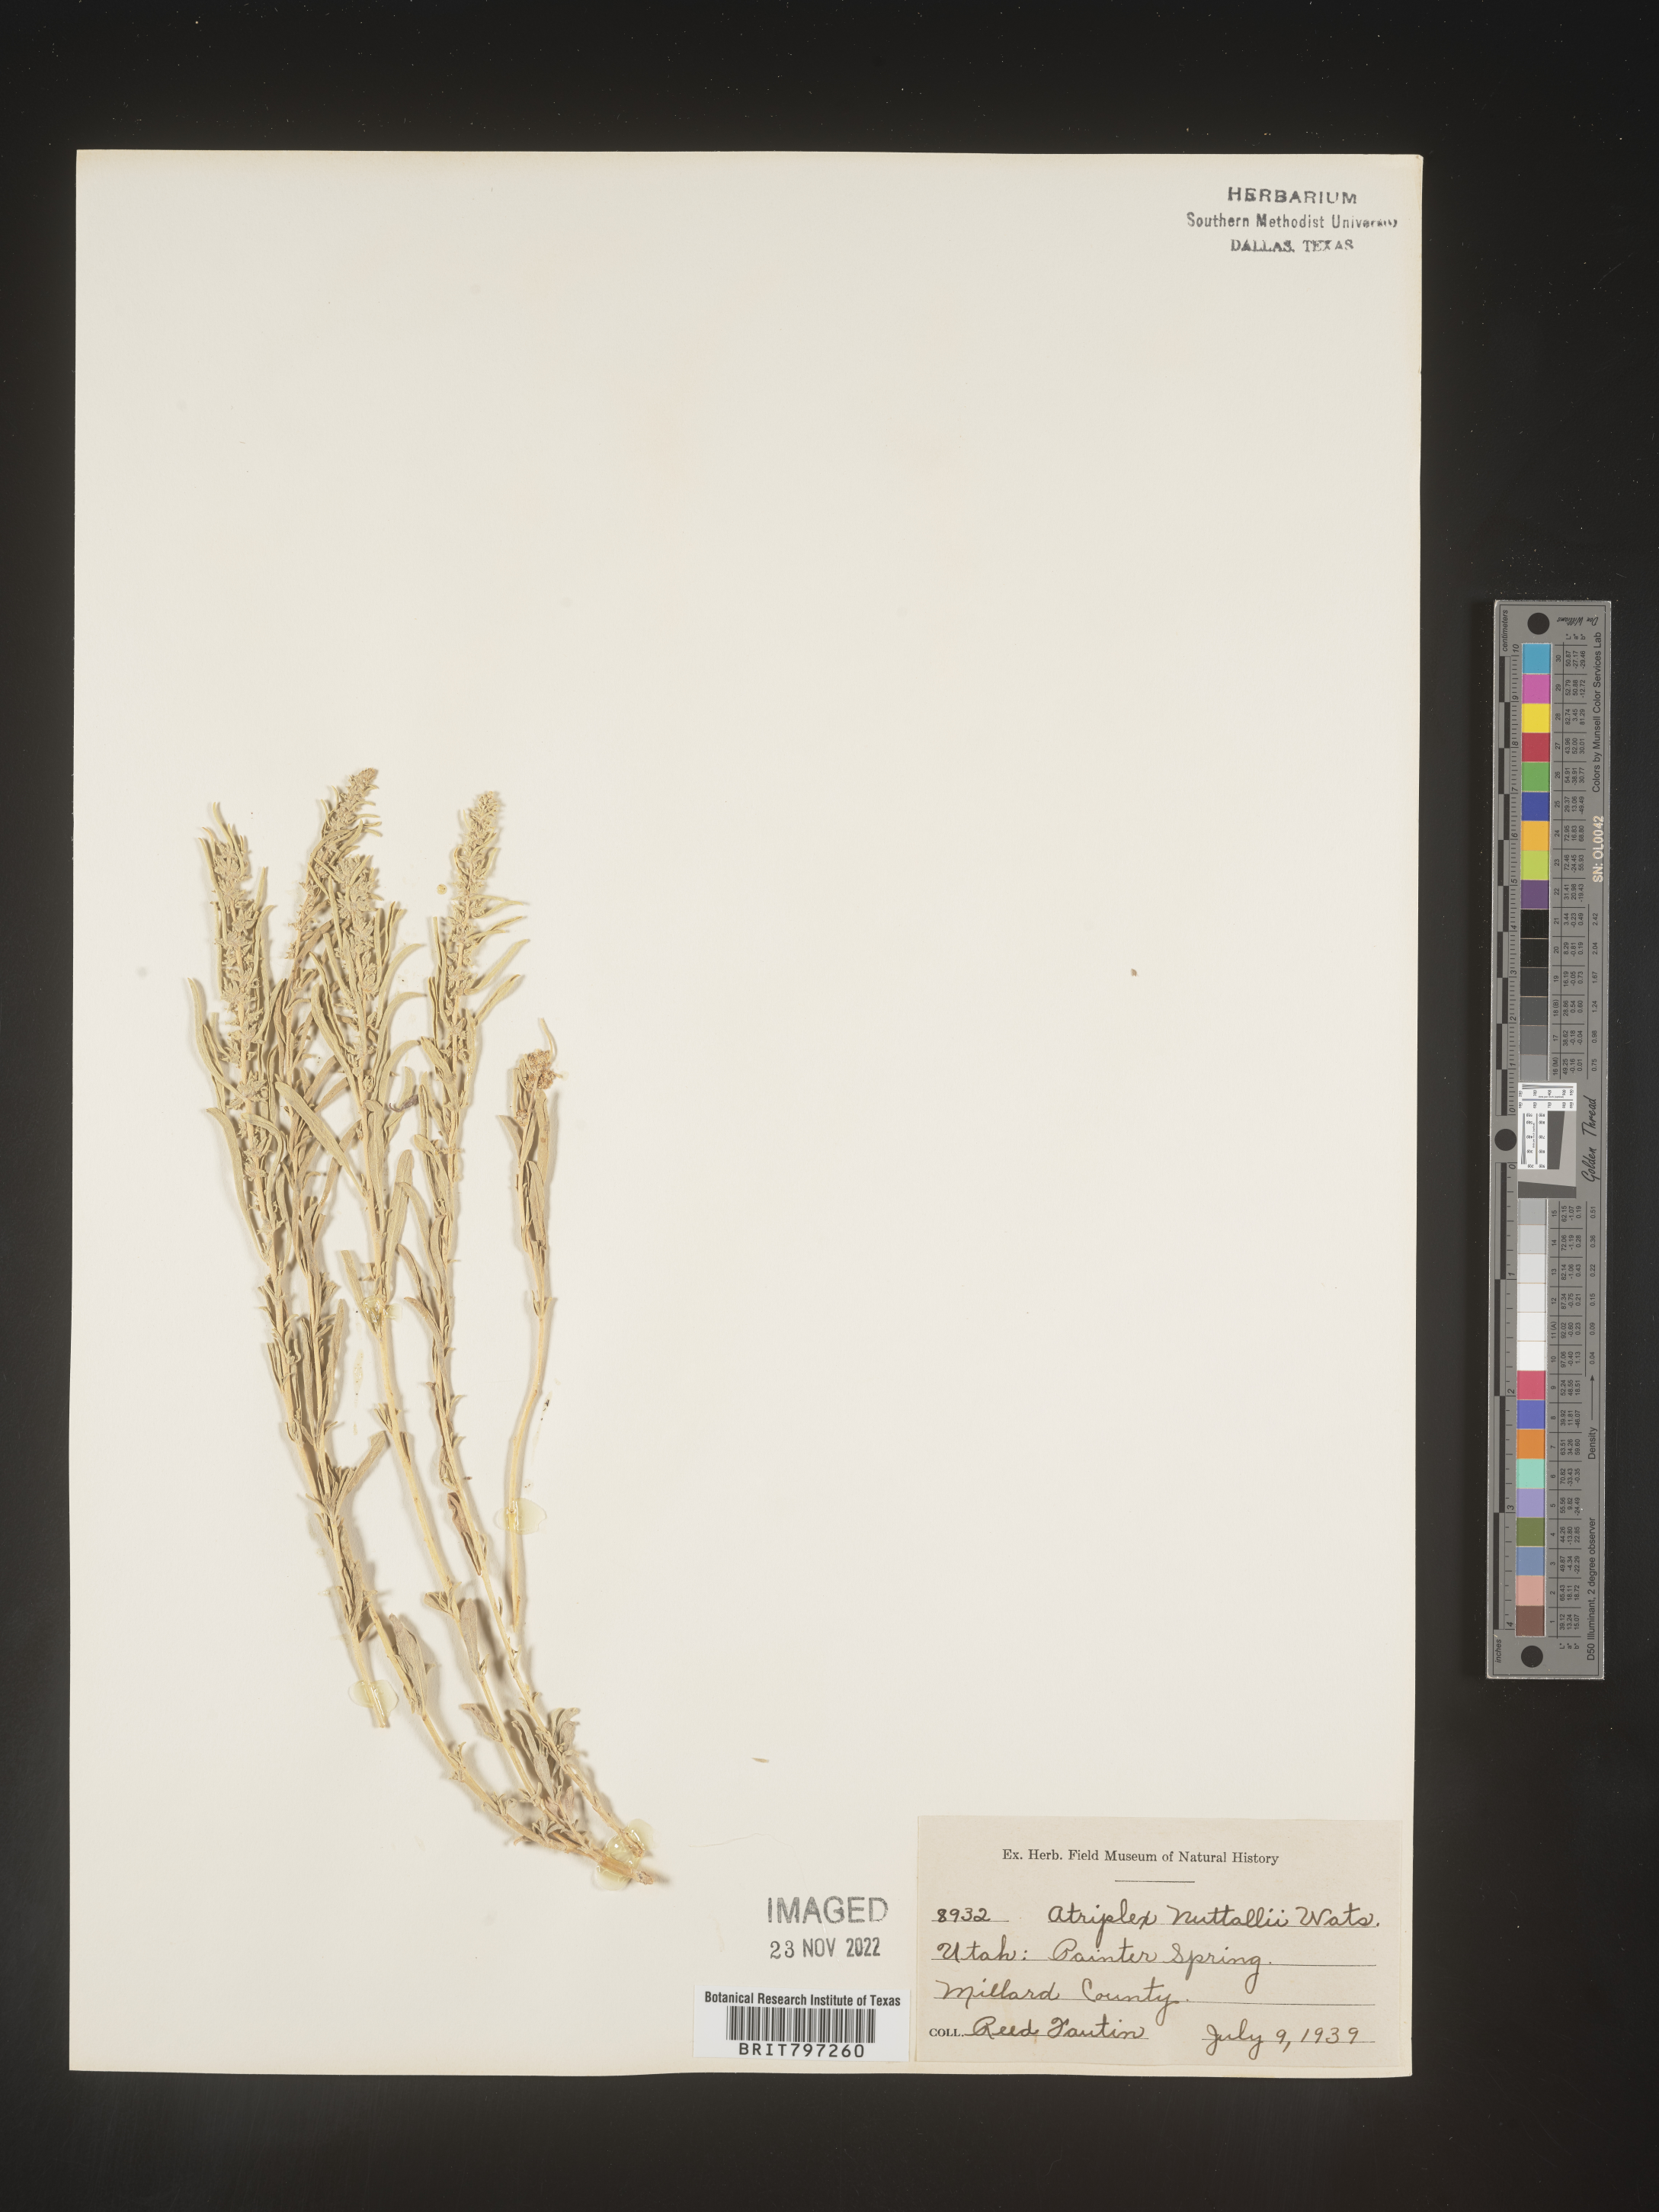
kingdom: Plantae
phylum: Tracheophyta
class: Magnoliopsida
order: Caryophyllales
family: Amaranthaceae
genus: Atriplex
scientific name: Atriplex
